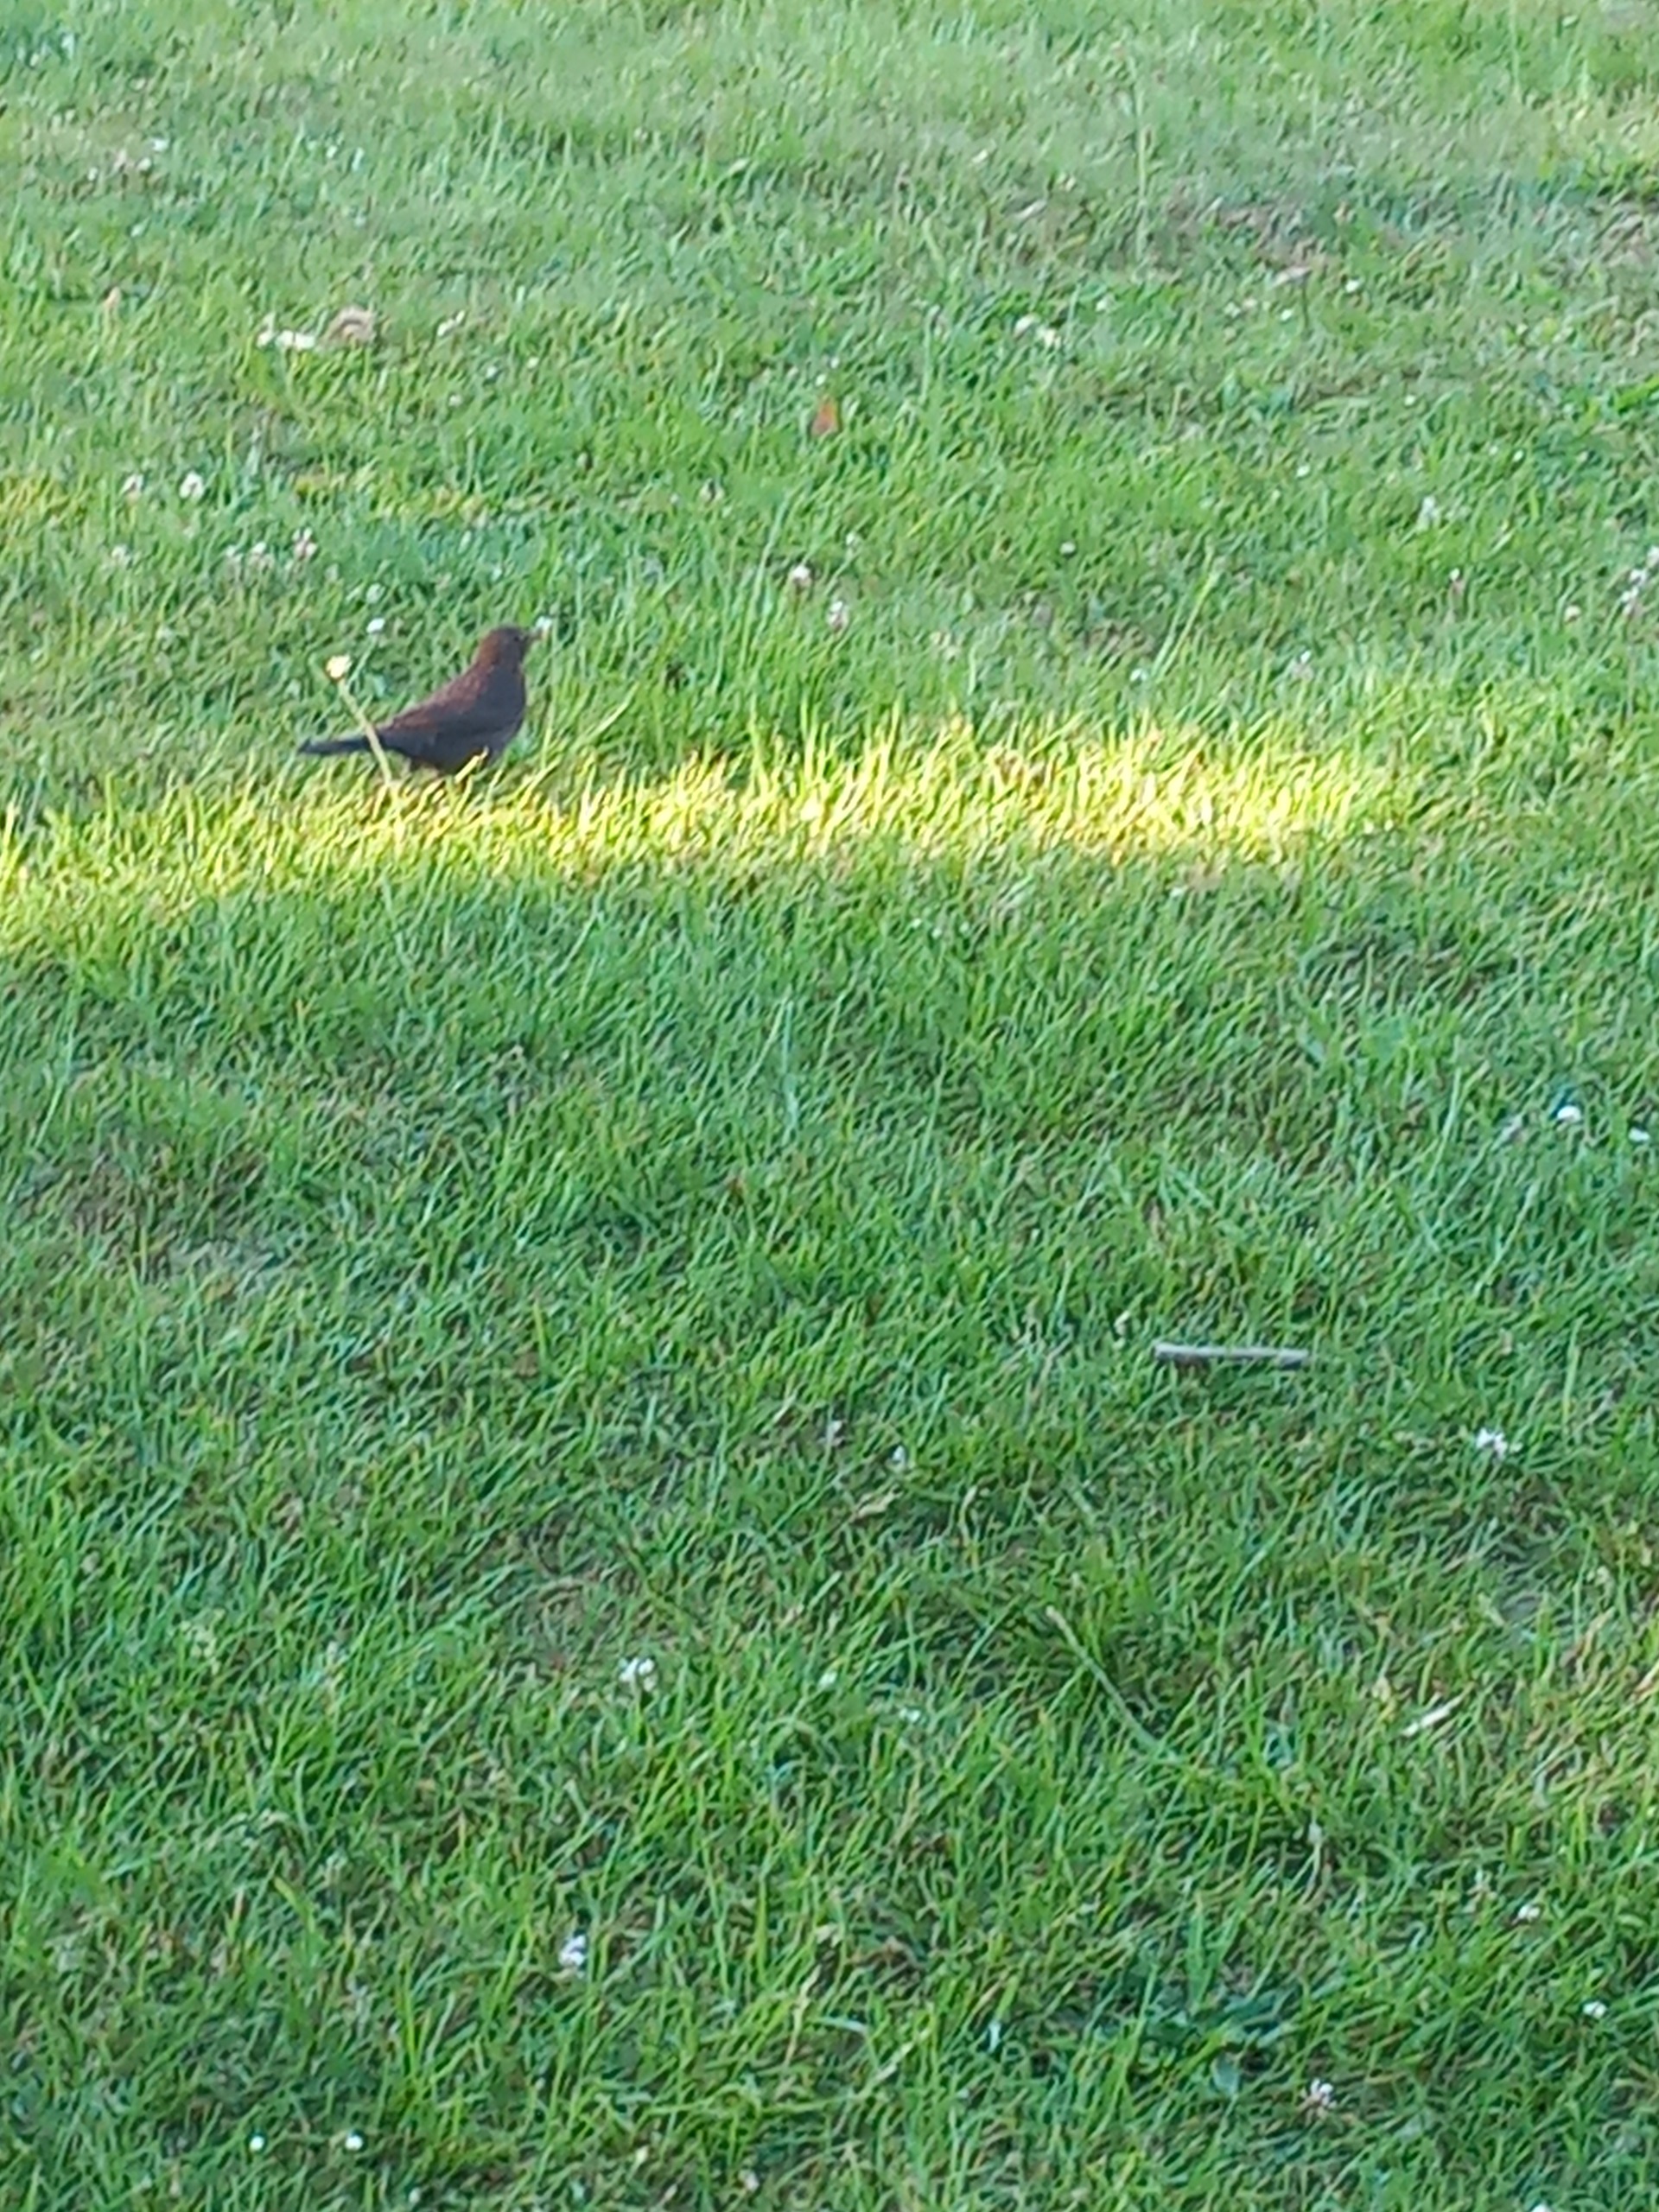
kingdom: Animalia
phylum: Chordata
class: Aves
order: Passeriformes
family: Turdidae
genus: Turdus
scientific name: Turdus merula
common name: Solsort
